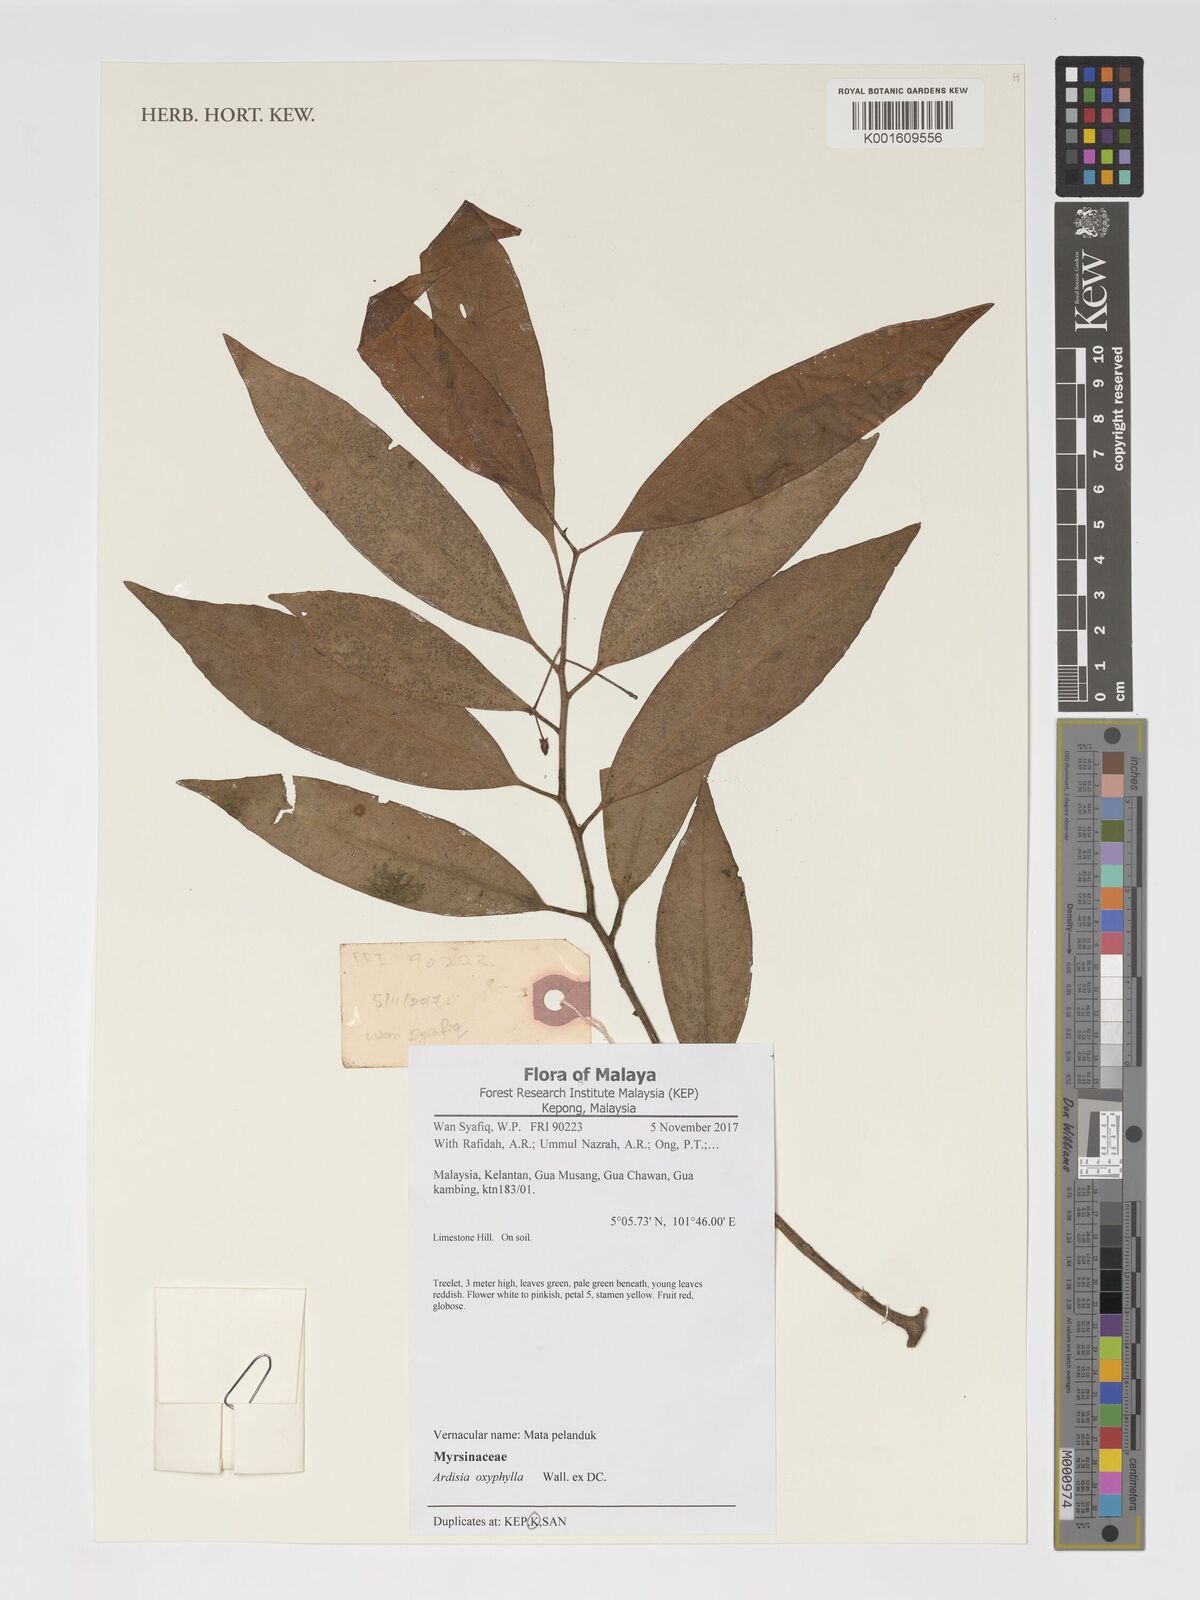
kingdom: Plantae
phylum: Tracheophyta
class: Magnoliopsida
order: Ericales
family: Primulaceae
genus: Ardisia
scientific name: Ardisia oxyphylla
